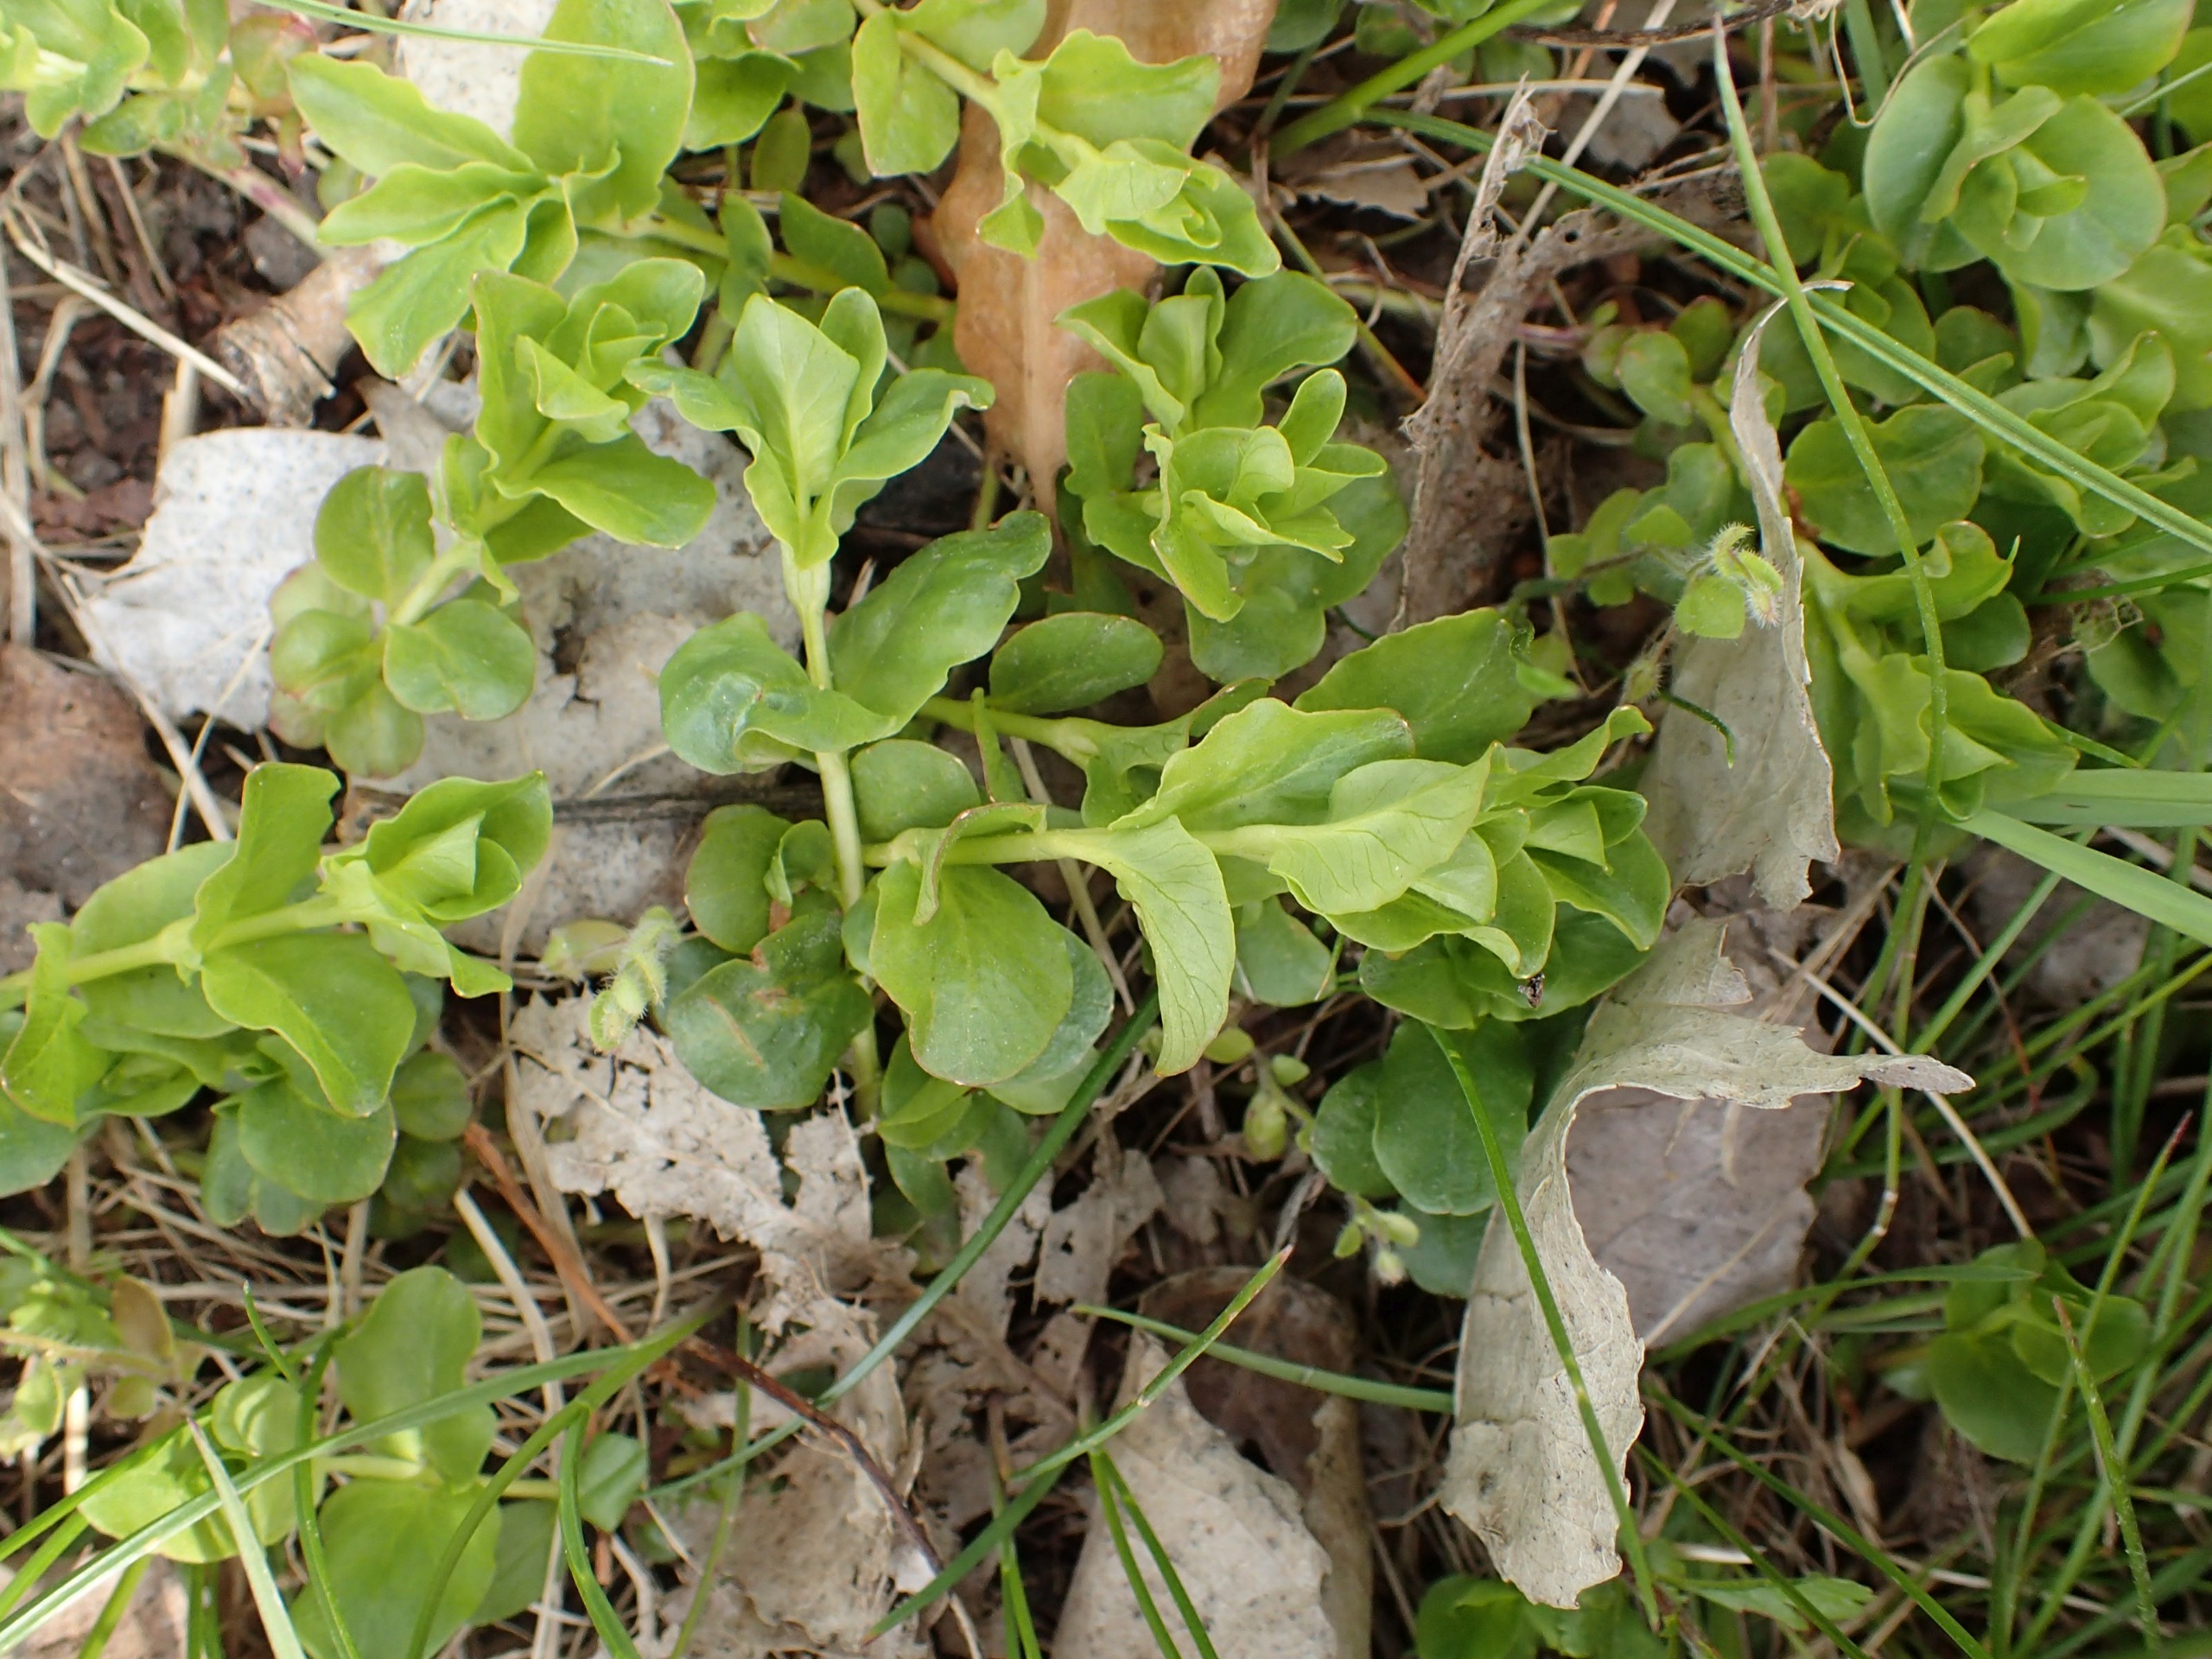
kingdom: Plantae
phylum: Tracheophyta
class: Magnoliopsida
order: Ericales
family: Primulaceae
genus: Lysimachia
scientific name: Lysimachia nummularia
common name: Pengebladet fredløs
